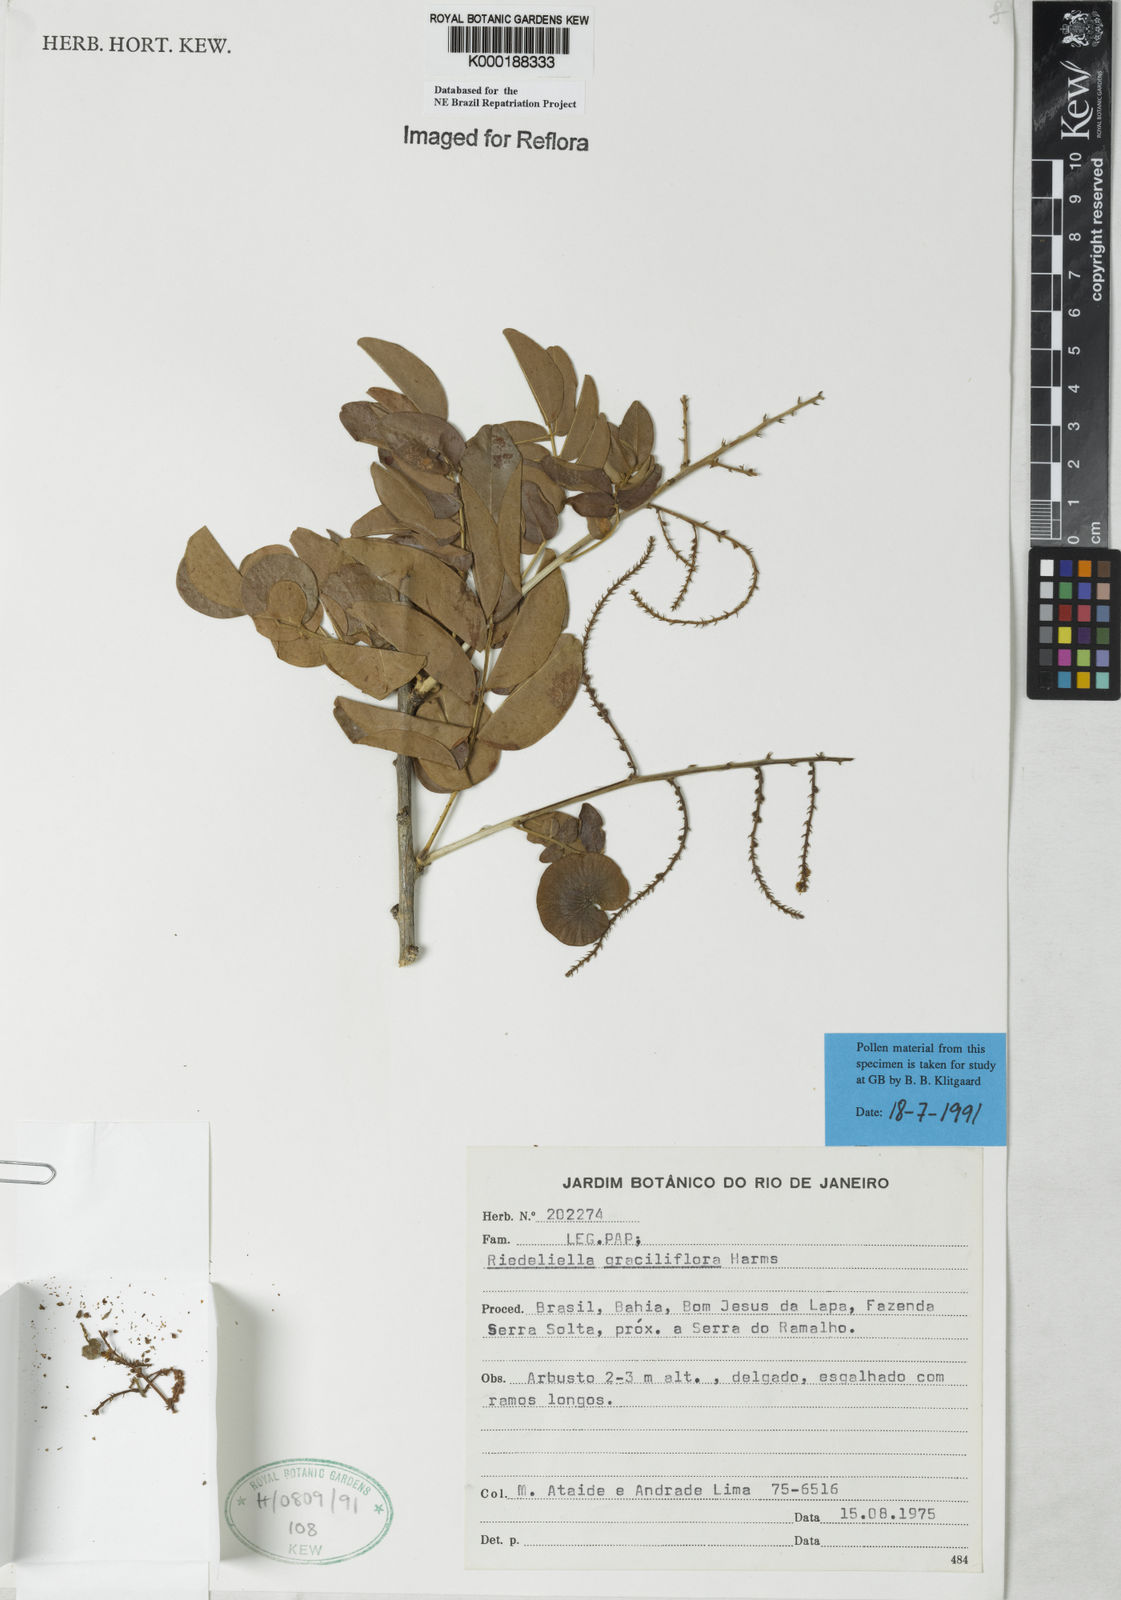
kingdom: Plantae
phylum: Tracheophyta
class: Magnoliopsida
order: Fabales
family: Fabaceae
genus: Riedeliella
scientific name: Riedeliella graciliflora
